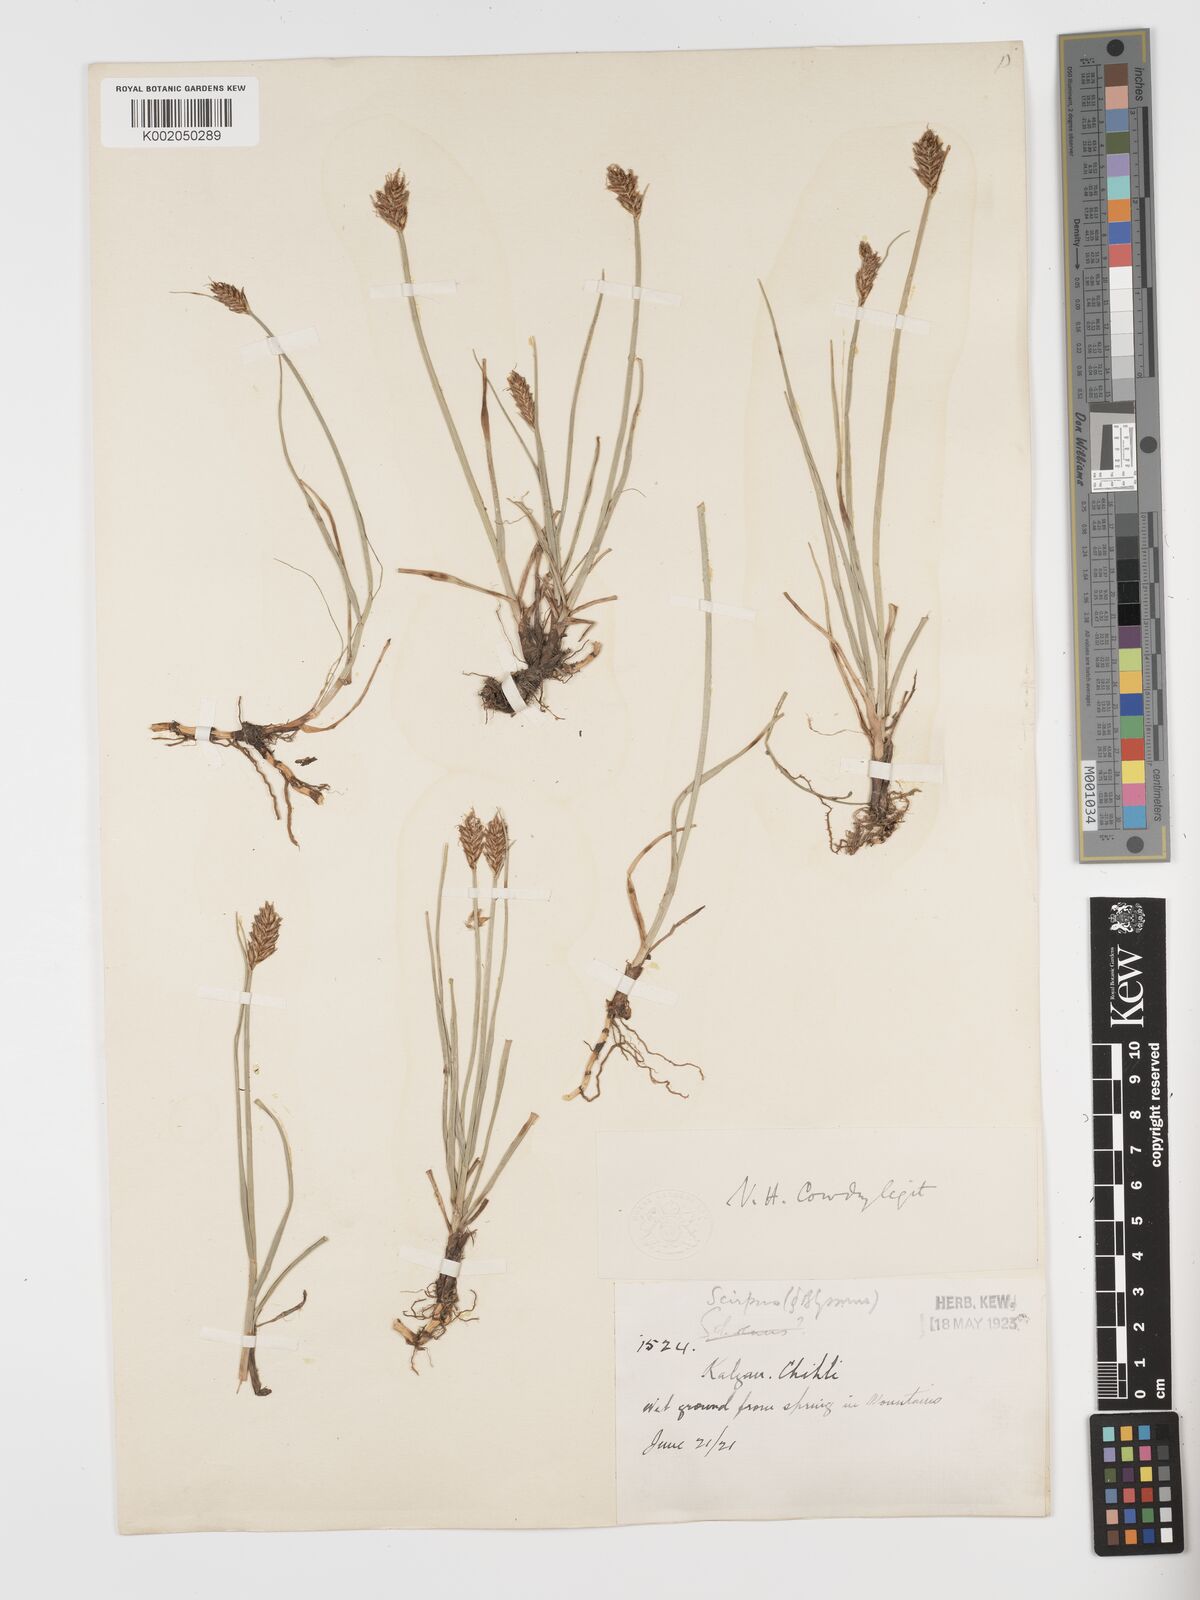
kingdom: Plantae
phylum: Tracheophyta
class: Liliopsida
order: Poales
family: Cyperaceae
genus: Blysmus
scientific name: Blysmus compressus
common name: Flat-sedge
